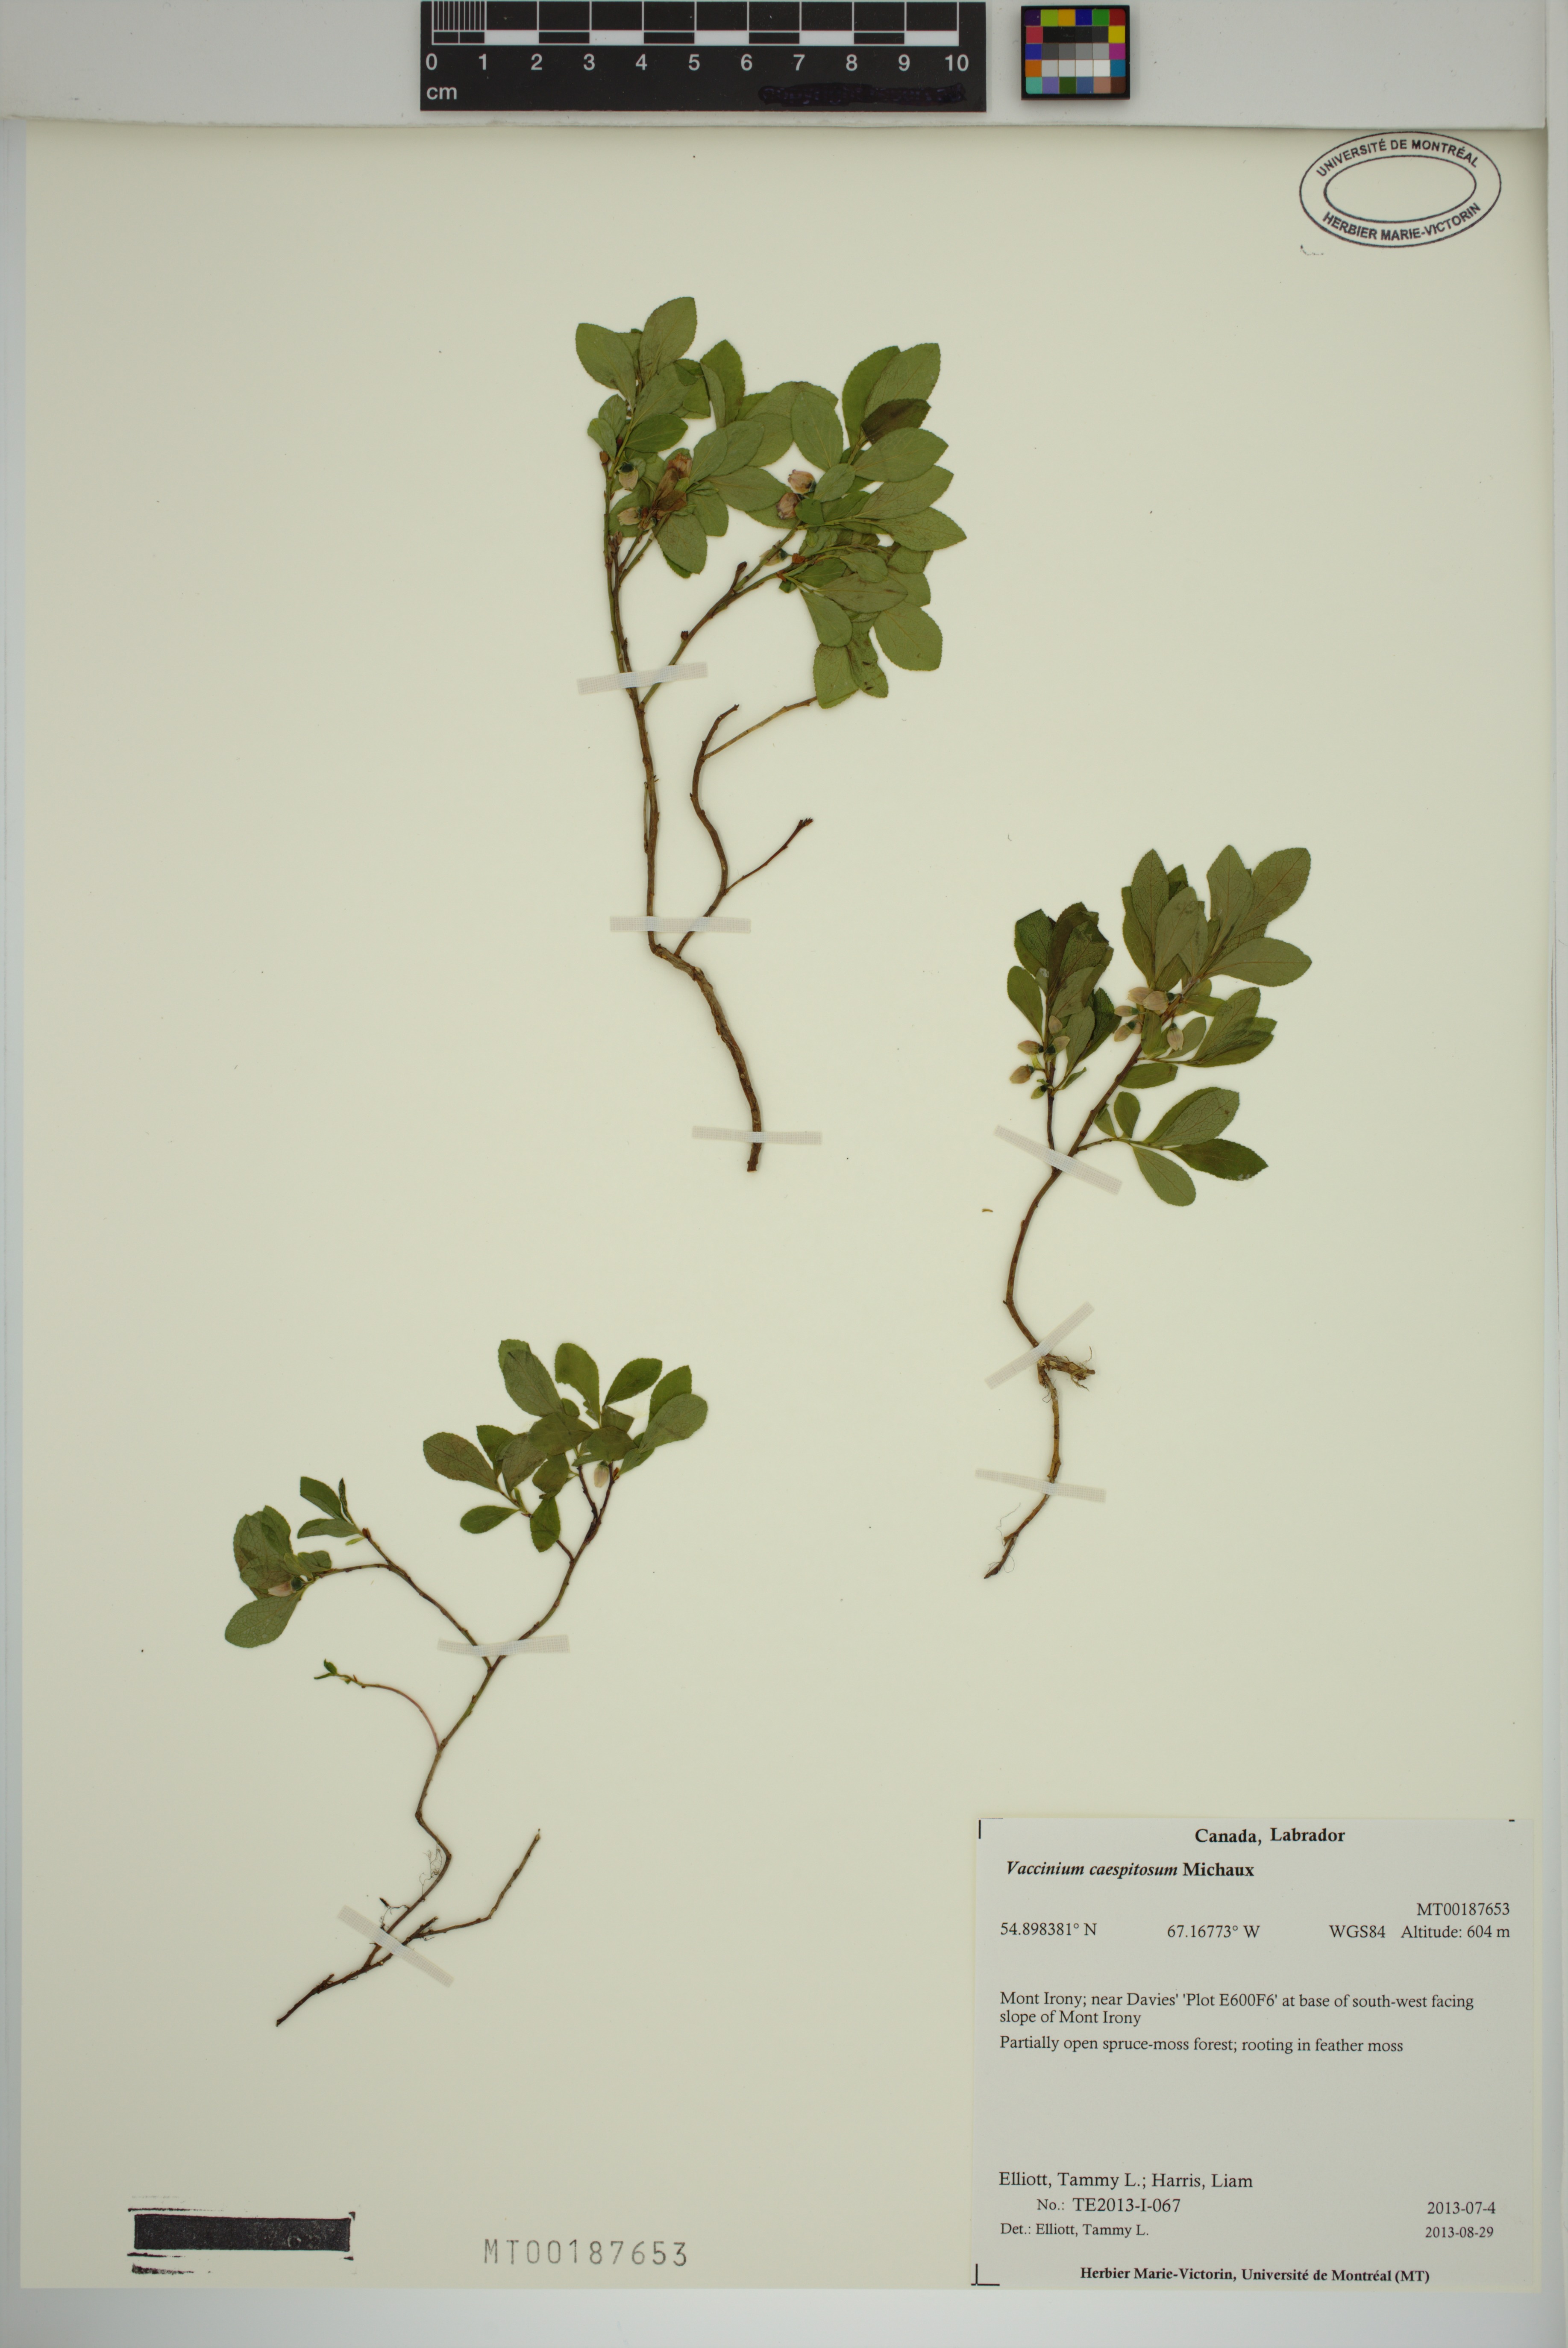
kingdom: Plantae
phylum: Tracheophyta
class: Magnoliopsida
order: Ericales
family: Ericaceae
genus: Vaccinium
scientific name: Vaccinium cespitosum
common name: Dwarf bilberry
